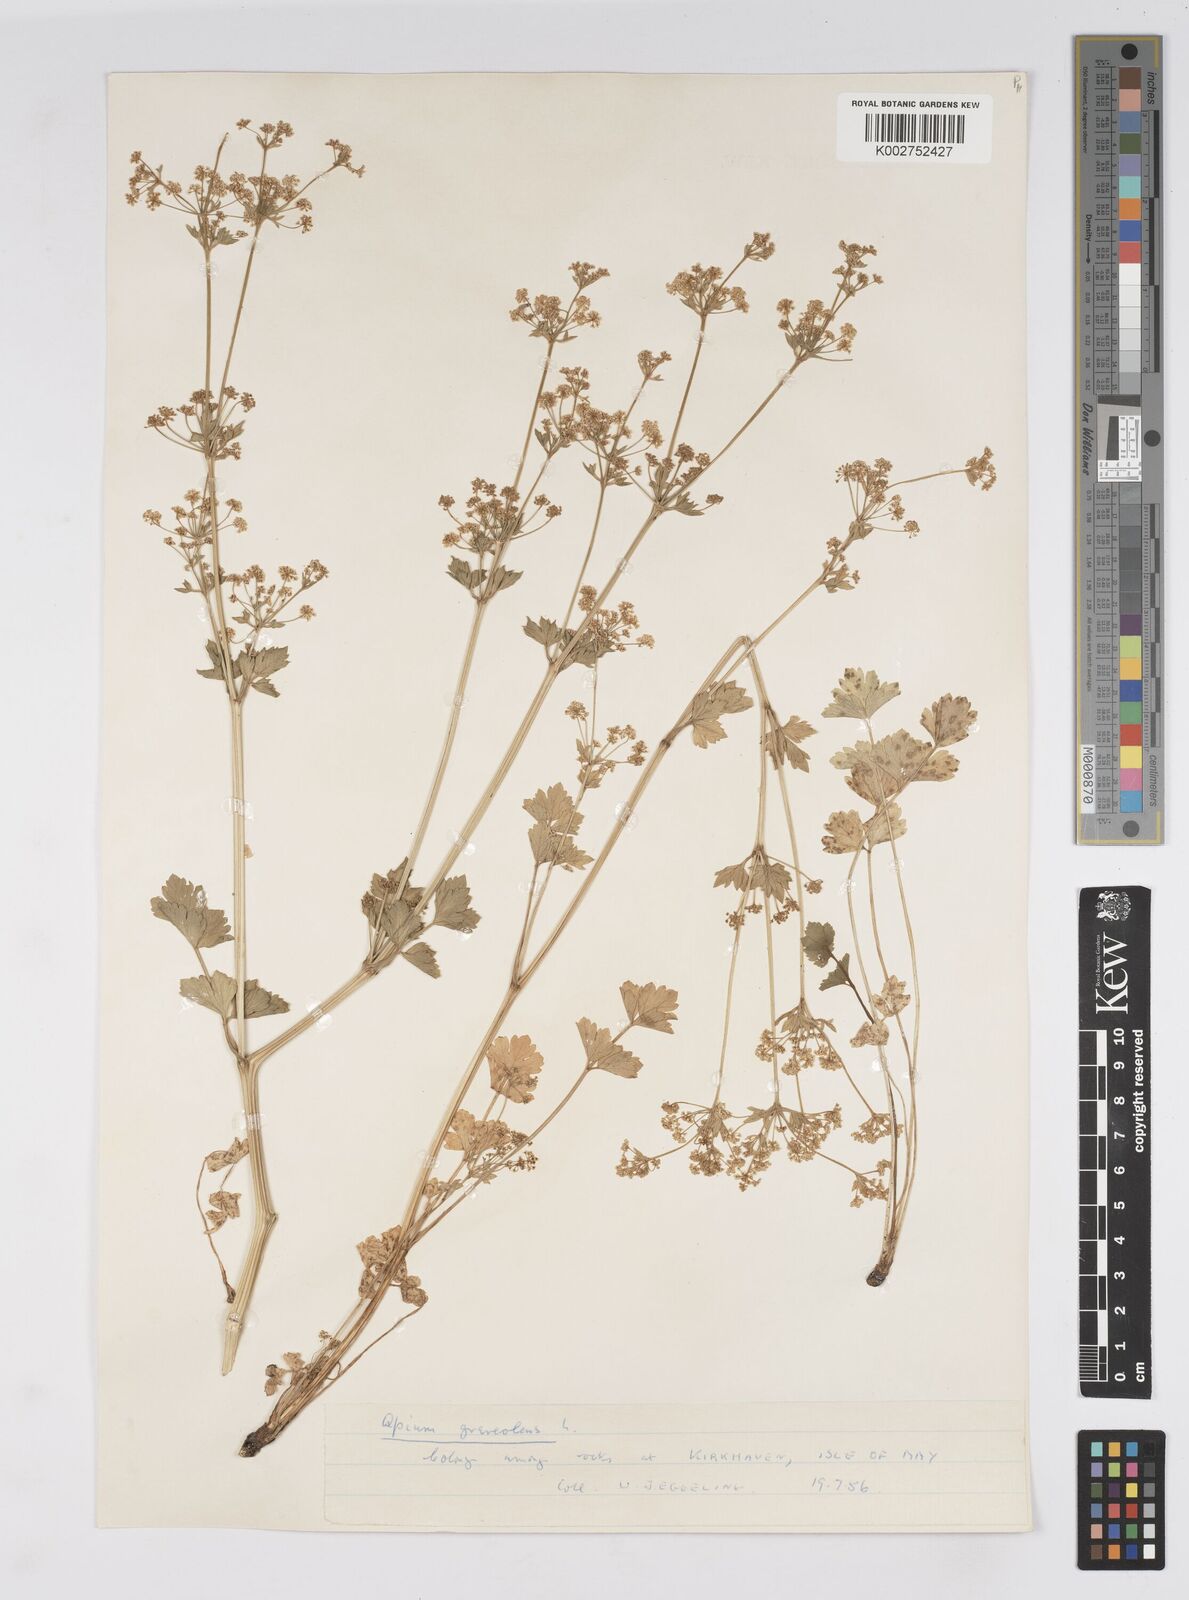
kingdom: Plantae
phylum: Tracheophyta
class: Magnoliopsida
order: Apiales
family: Apiaceae
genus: Apium
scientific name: Apium graveolens
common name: Wild celery
